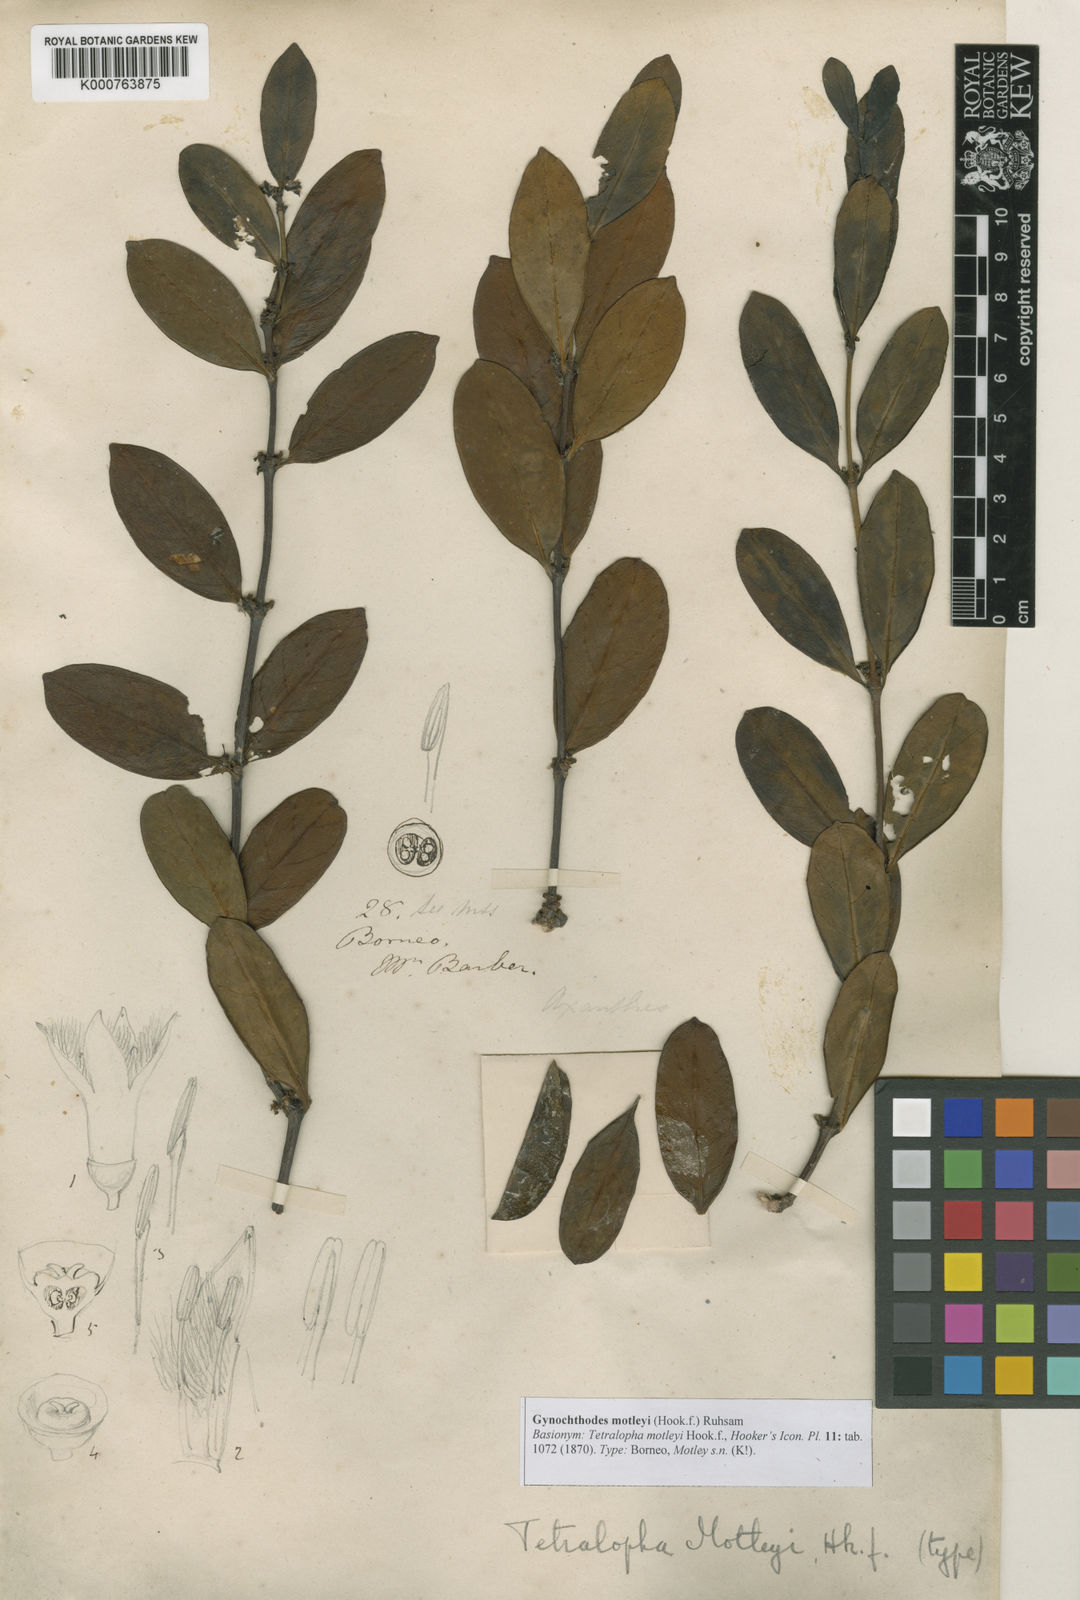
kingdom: Plantae
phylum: Tracheophyta
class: Magnoliopsida
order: Gentianales
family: Rubiaceae
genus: Gynochthodes
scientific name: Gynochthodes motleyi
